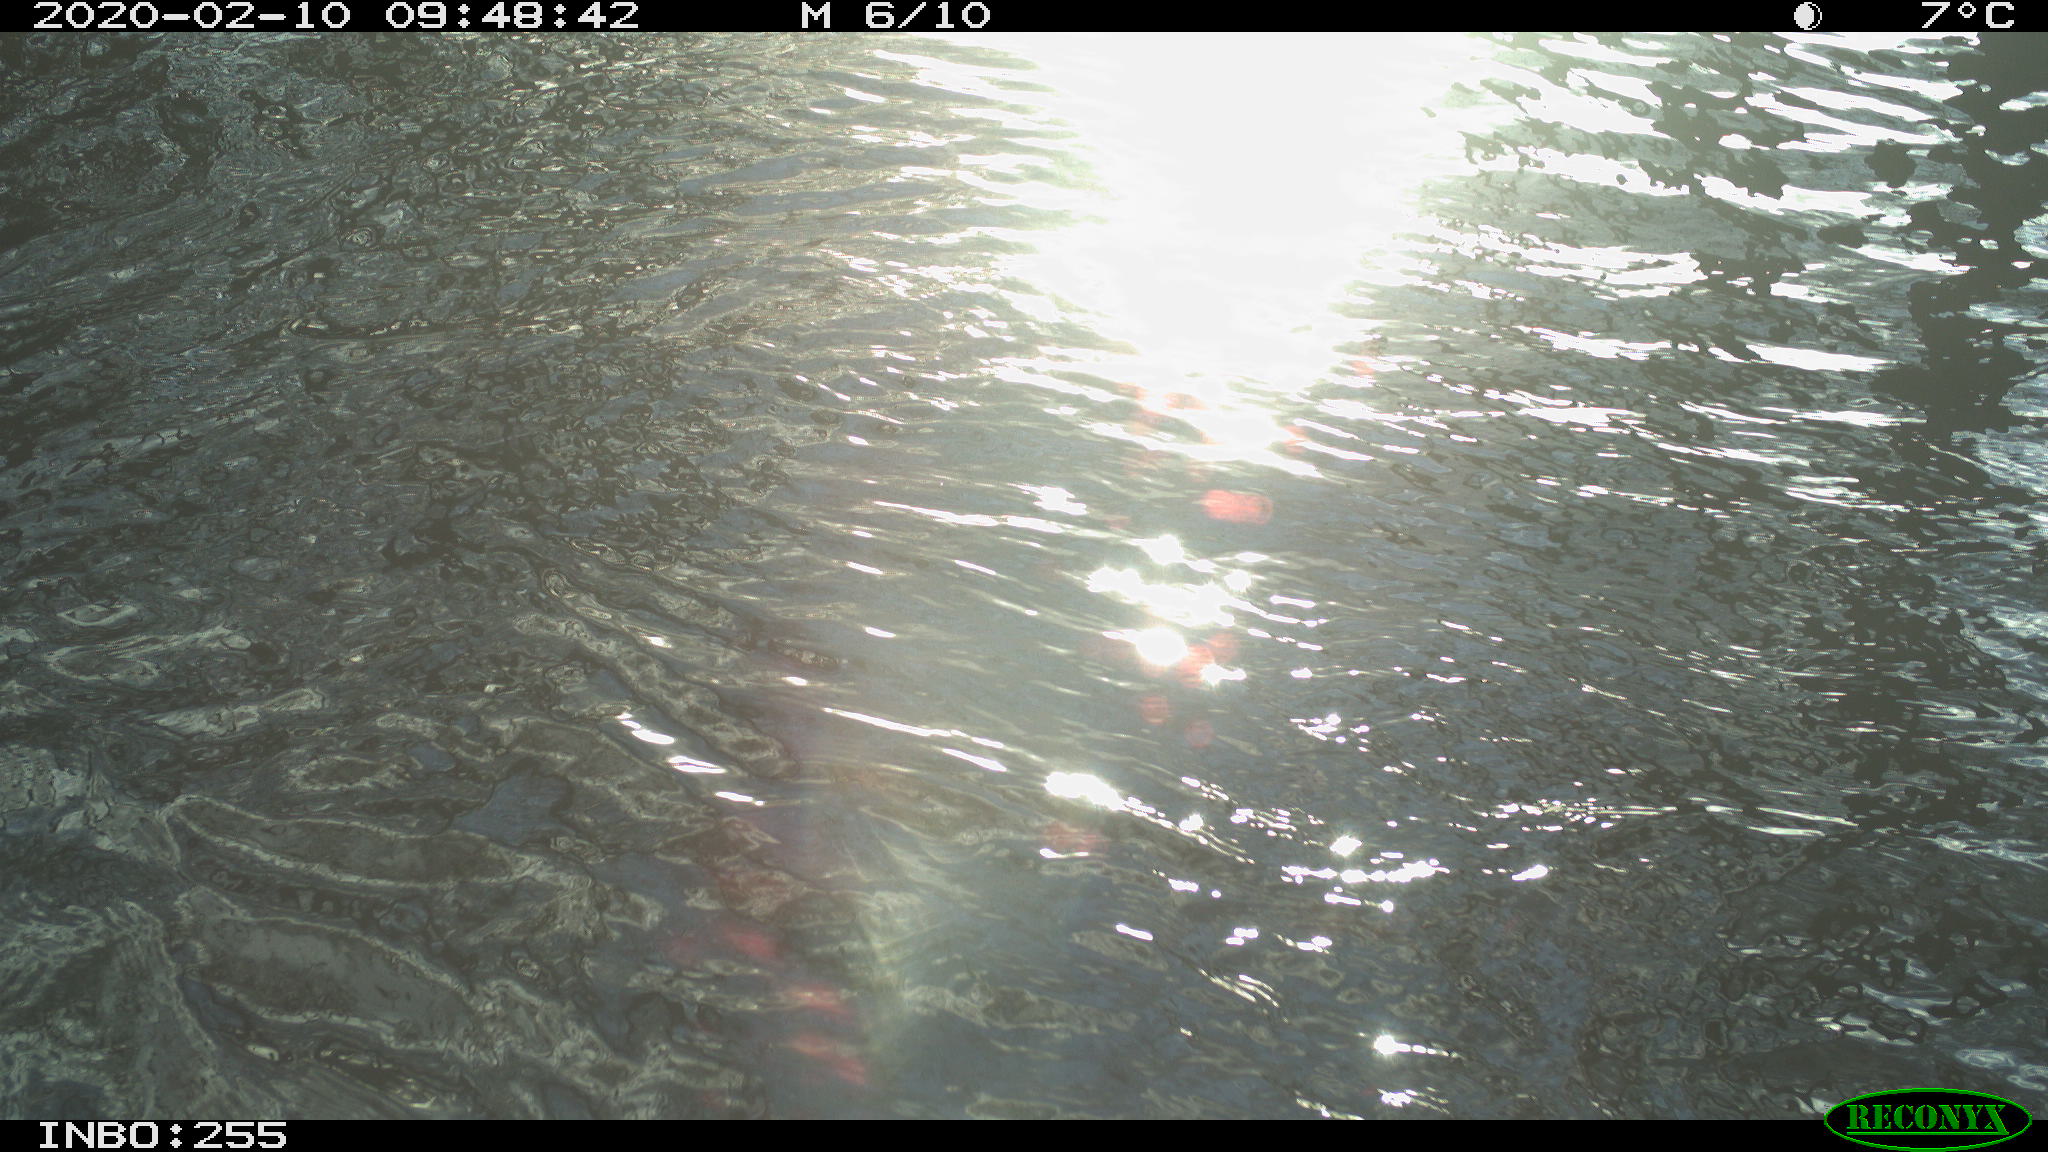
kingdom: Animalia
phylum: Chordata
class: Aves
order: Gruiformes
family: Rallidae
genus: Fulica
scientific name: Fulica atra
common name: Eurasian coot
